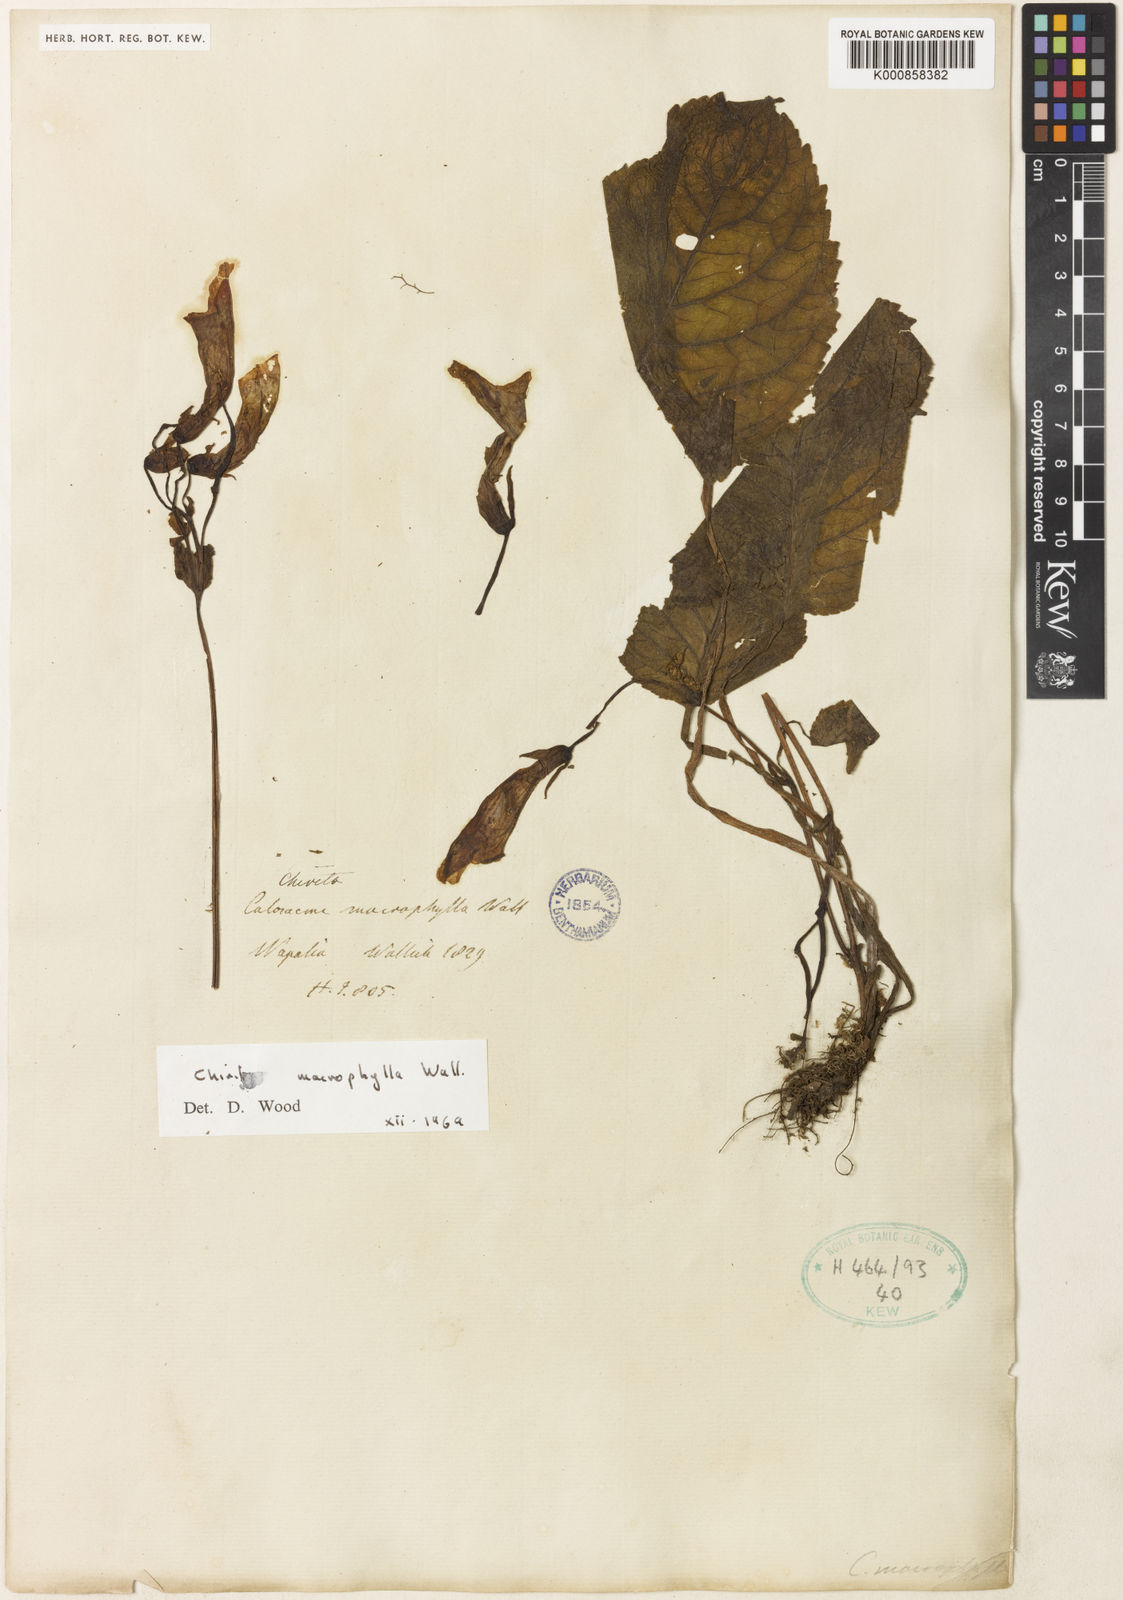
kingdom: Plantae
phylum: Tracheophyta
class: Magnoliopsida
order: Lamiales
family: Gesneriaceae
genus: Henckelia
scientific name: Henckelia grandifolia
